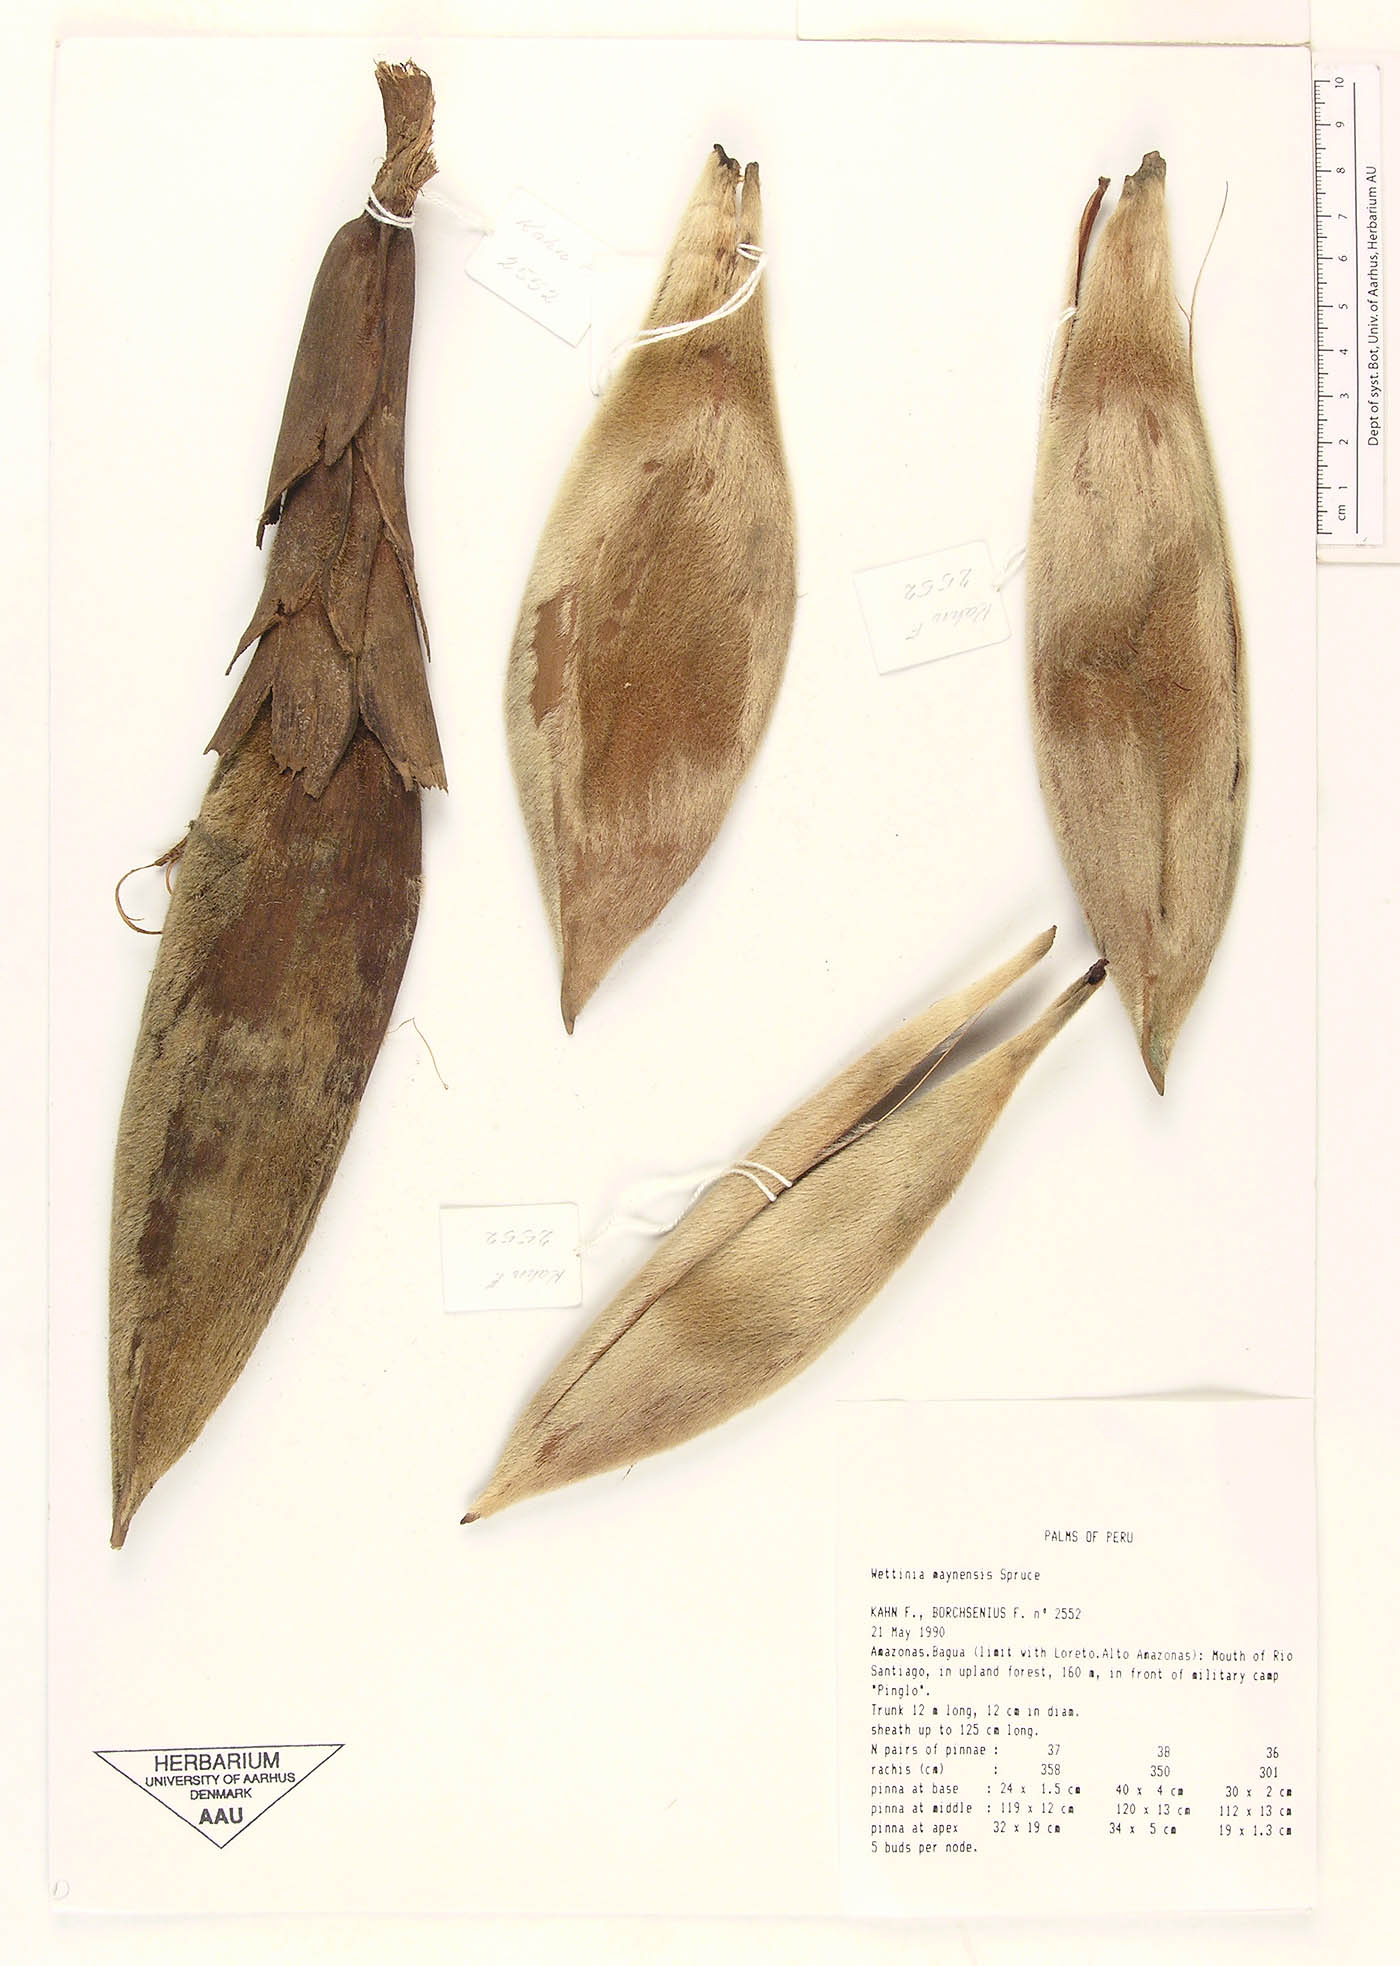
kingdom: Plantae
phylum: Tracheophyta
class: Liliopsida
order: Arecales
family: Arecaceae
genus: Wettinia
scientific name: Wettinia maynensis
